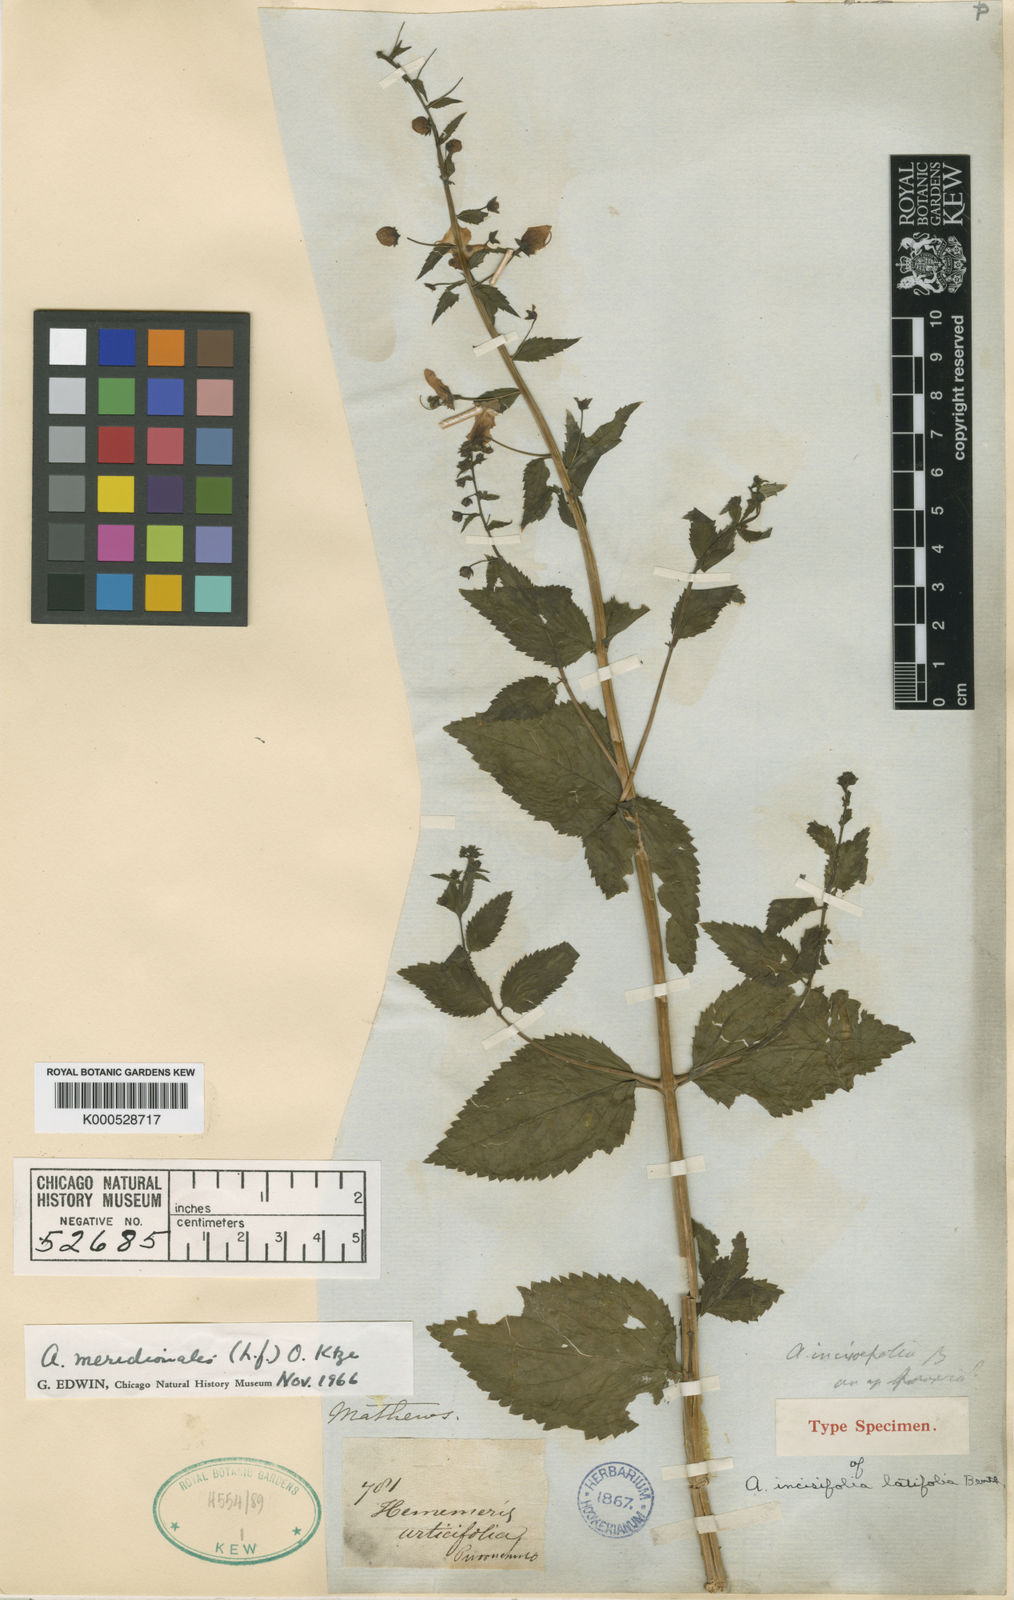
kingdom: Plantae
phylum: Tracheophyta
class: Magnoliopsida
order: Lamiales
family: Scrophulariaceae
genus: Alonsoa
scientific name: Alonsoa meridionalis
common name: Maskflower
